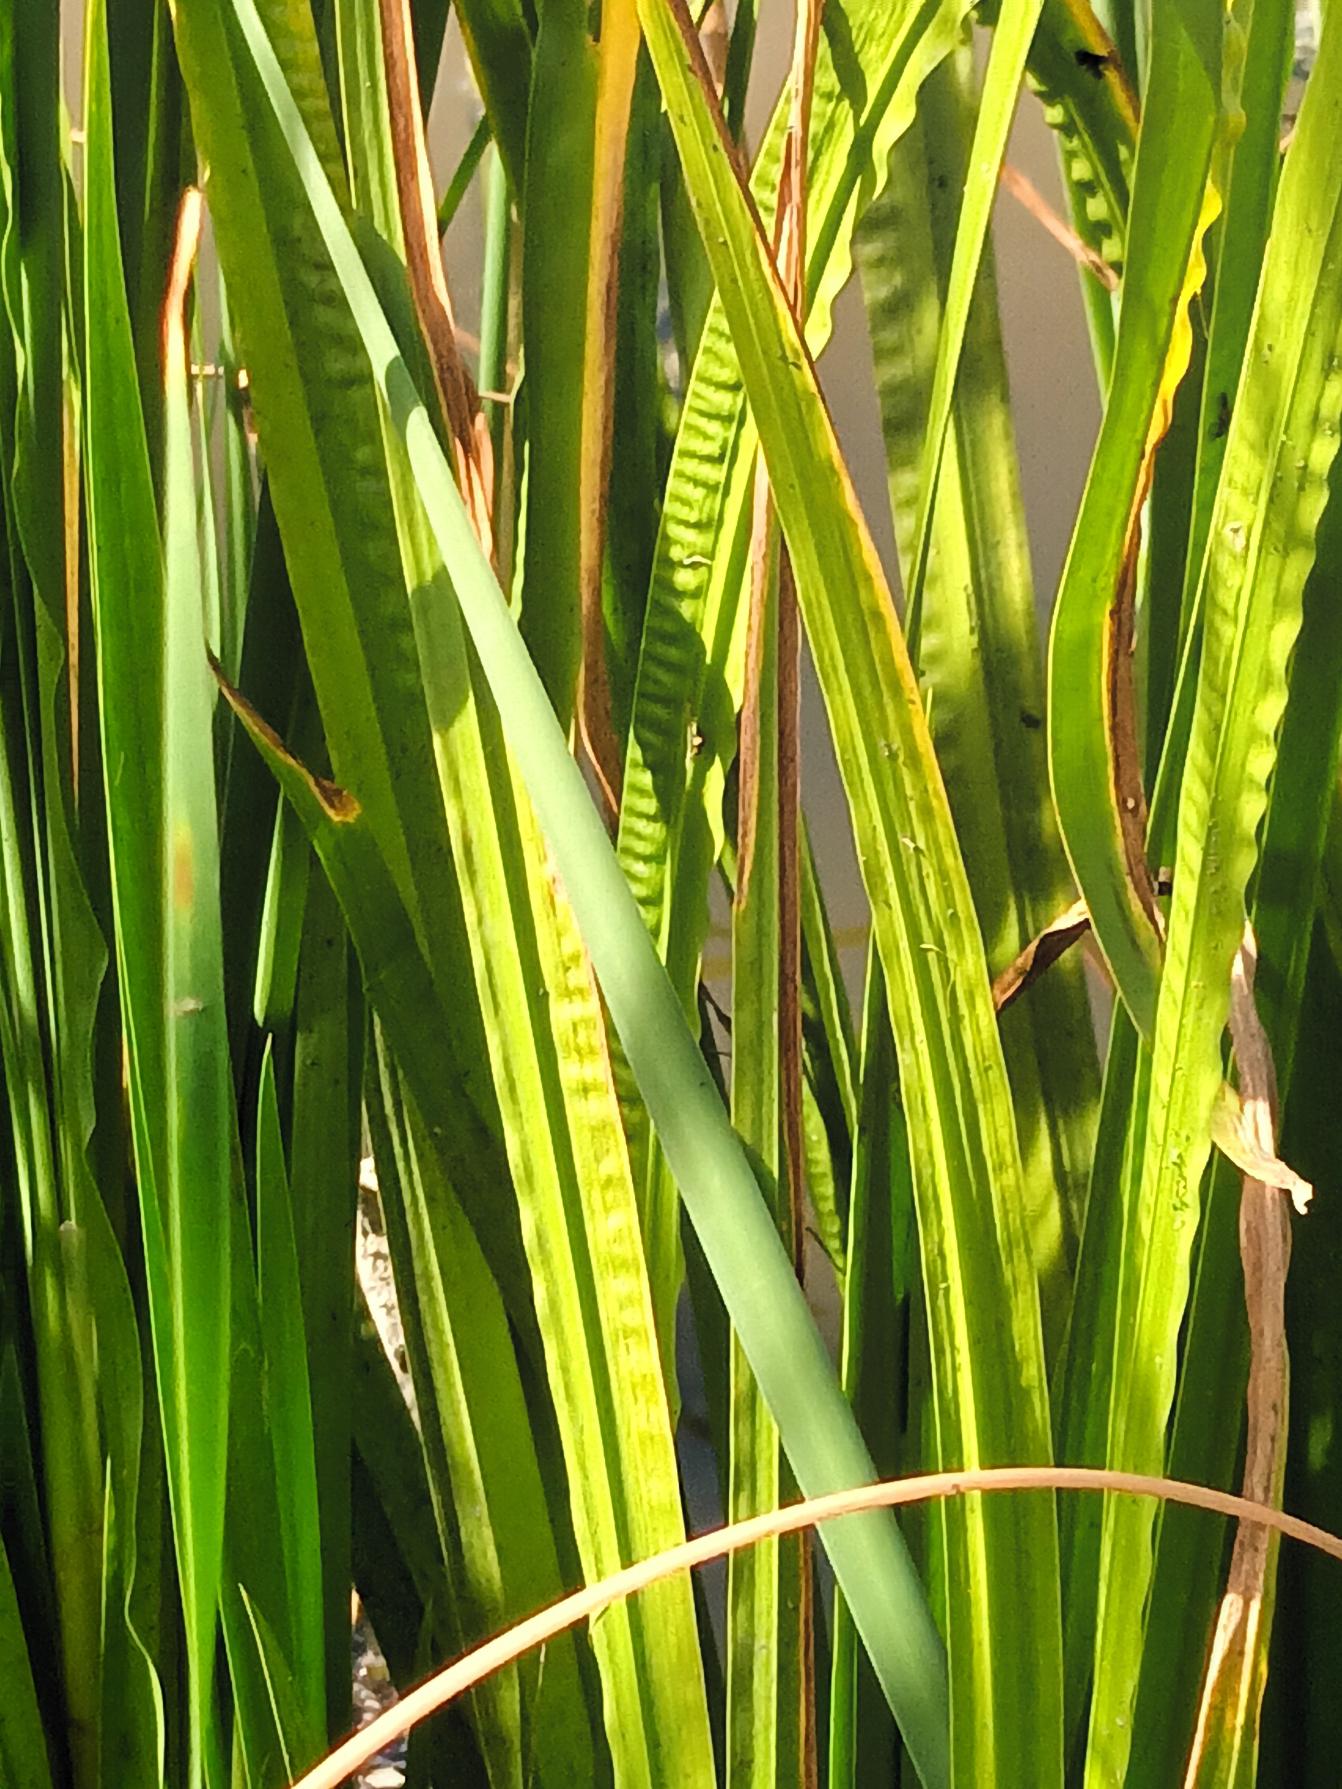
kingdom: Plantae
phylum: Tracheophyta
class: Liliopsida
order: Acorales
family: Acoraceae
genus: Acorus
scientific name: Acorus calamus
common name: Kalmus
